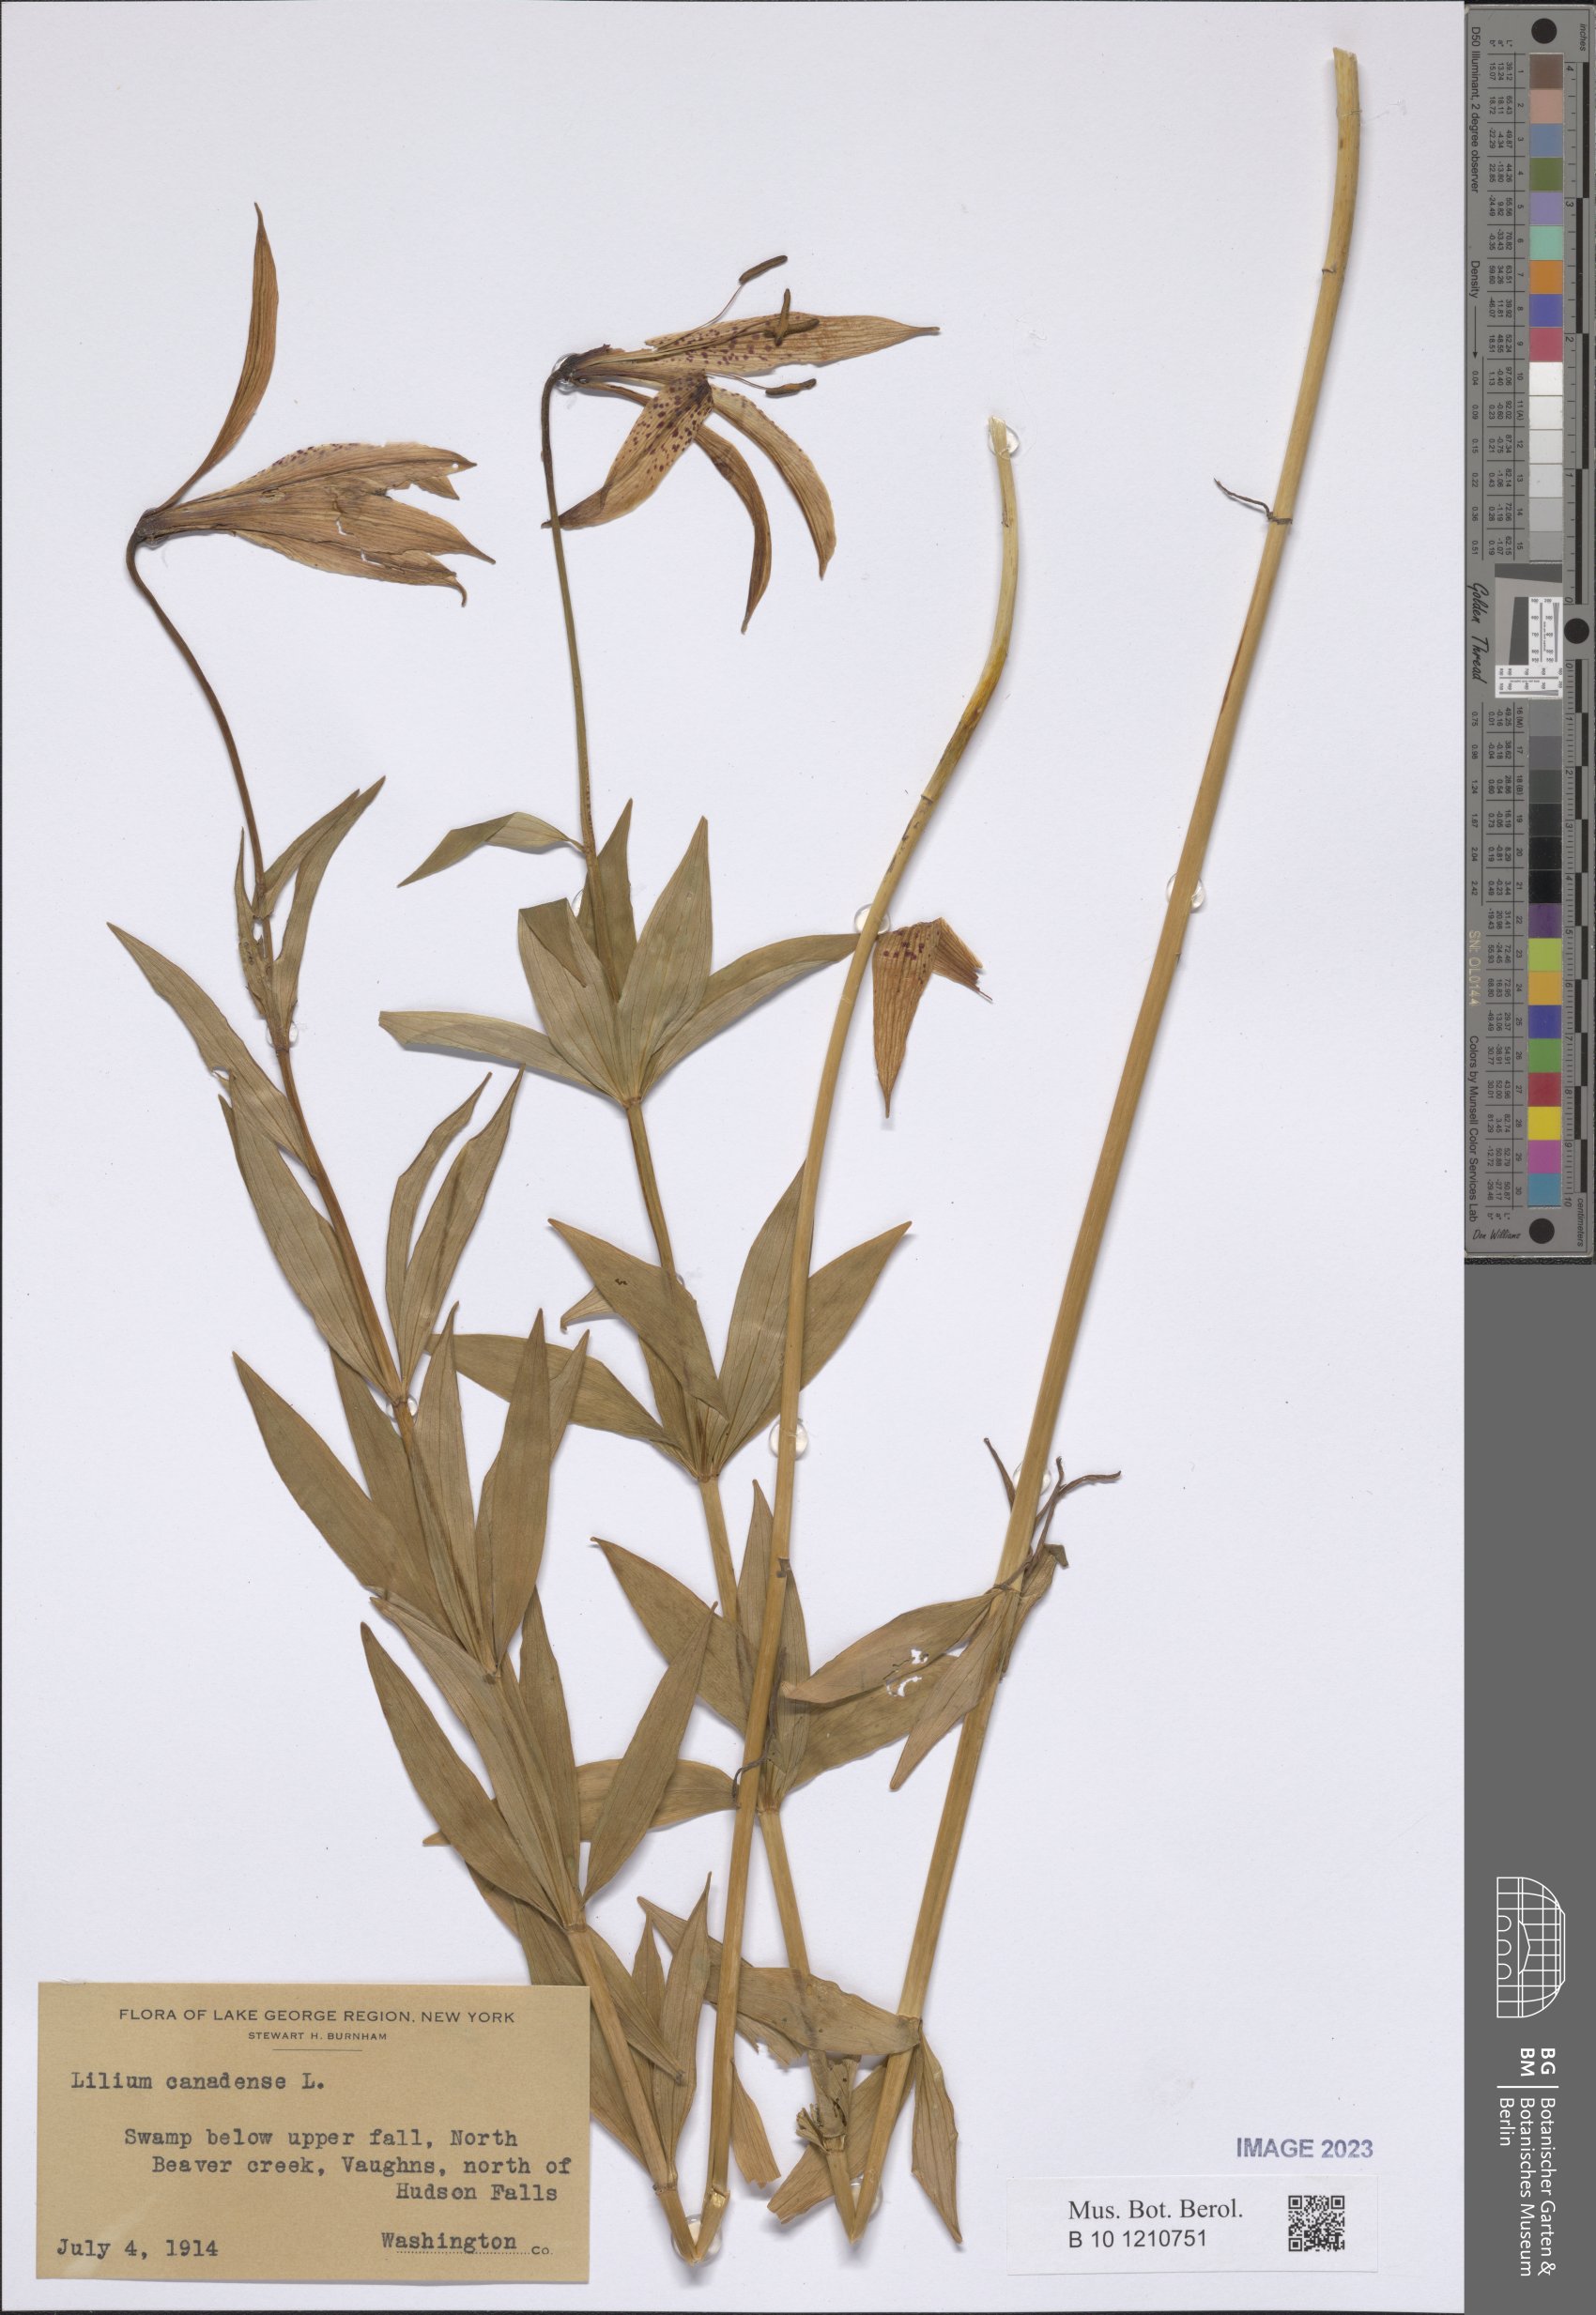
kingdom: Plantae
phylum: Tracheophyta
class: Liliopsida
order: Liliales
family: Liliaceae
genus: Lilium
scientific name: Lilium canadense
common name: Canada lily
